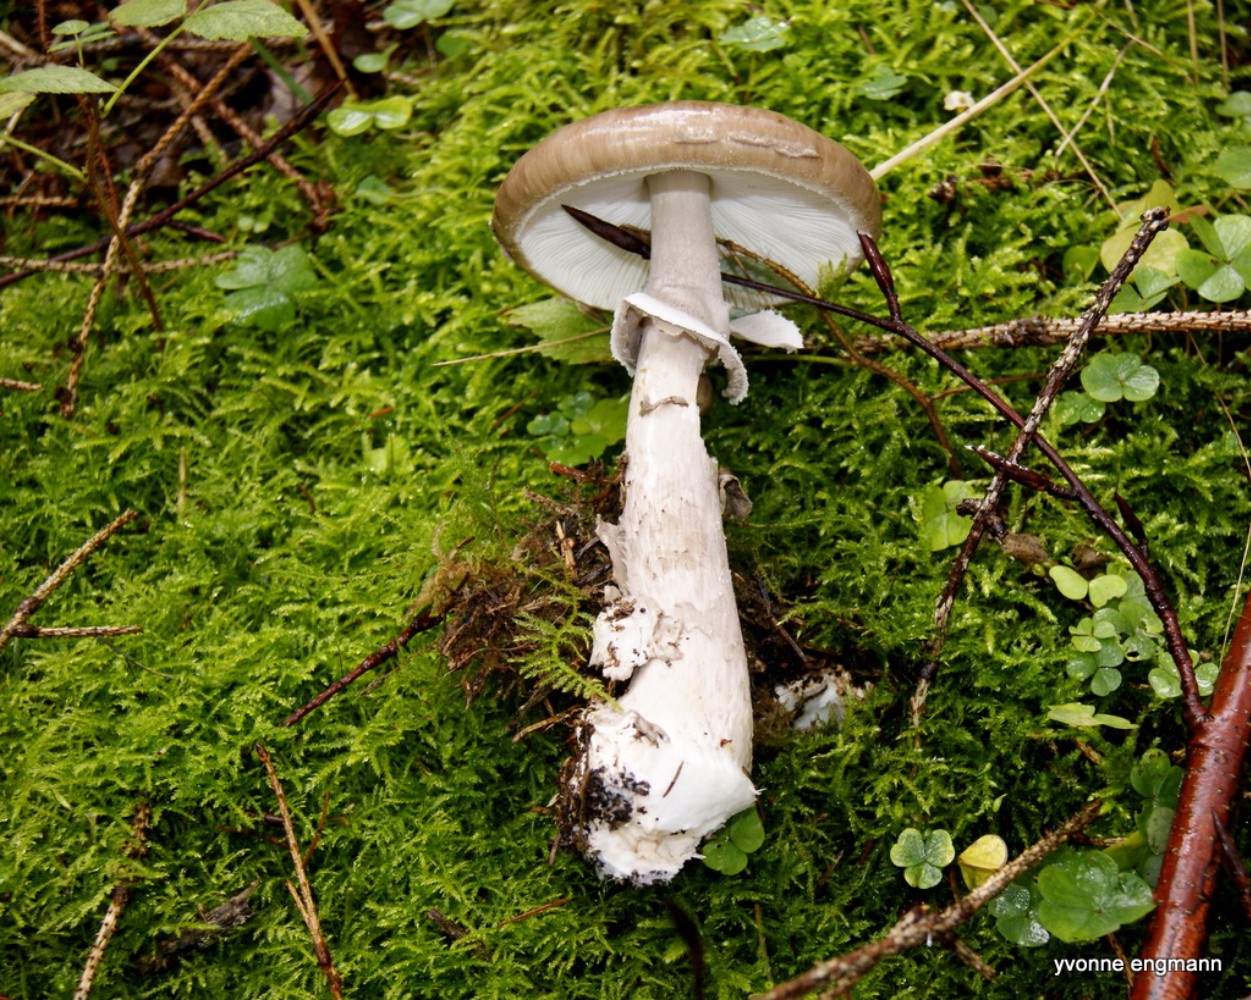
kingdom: Fungi
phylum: Basidiomycota
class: Agaricomycetes
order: Agaricales
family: Amanitaceae
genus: Amanita
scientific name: Amanita porphyria
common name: porfyr-fluesvamp
